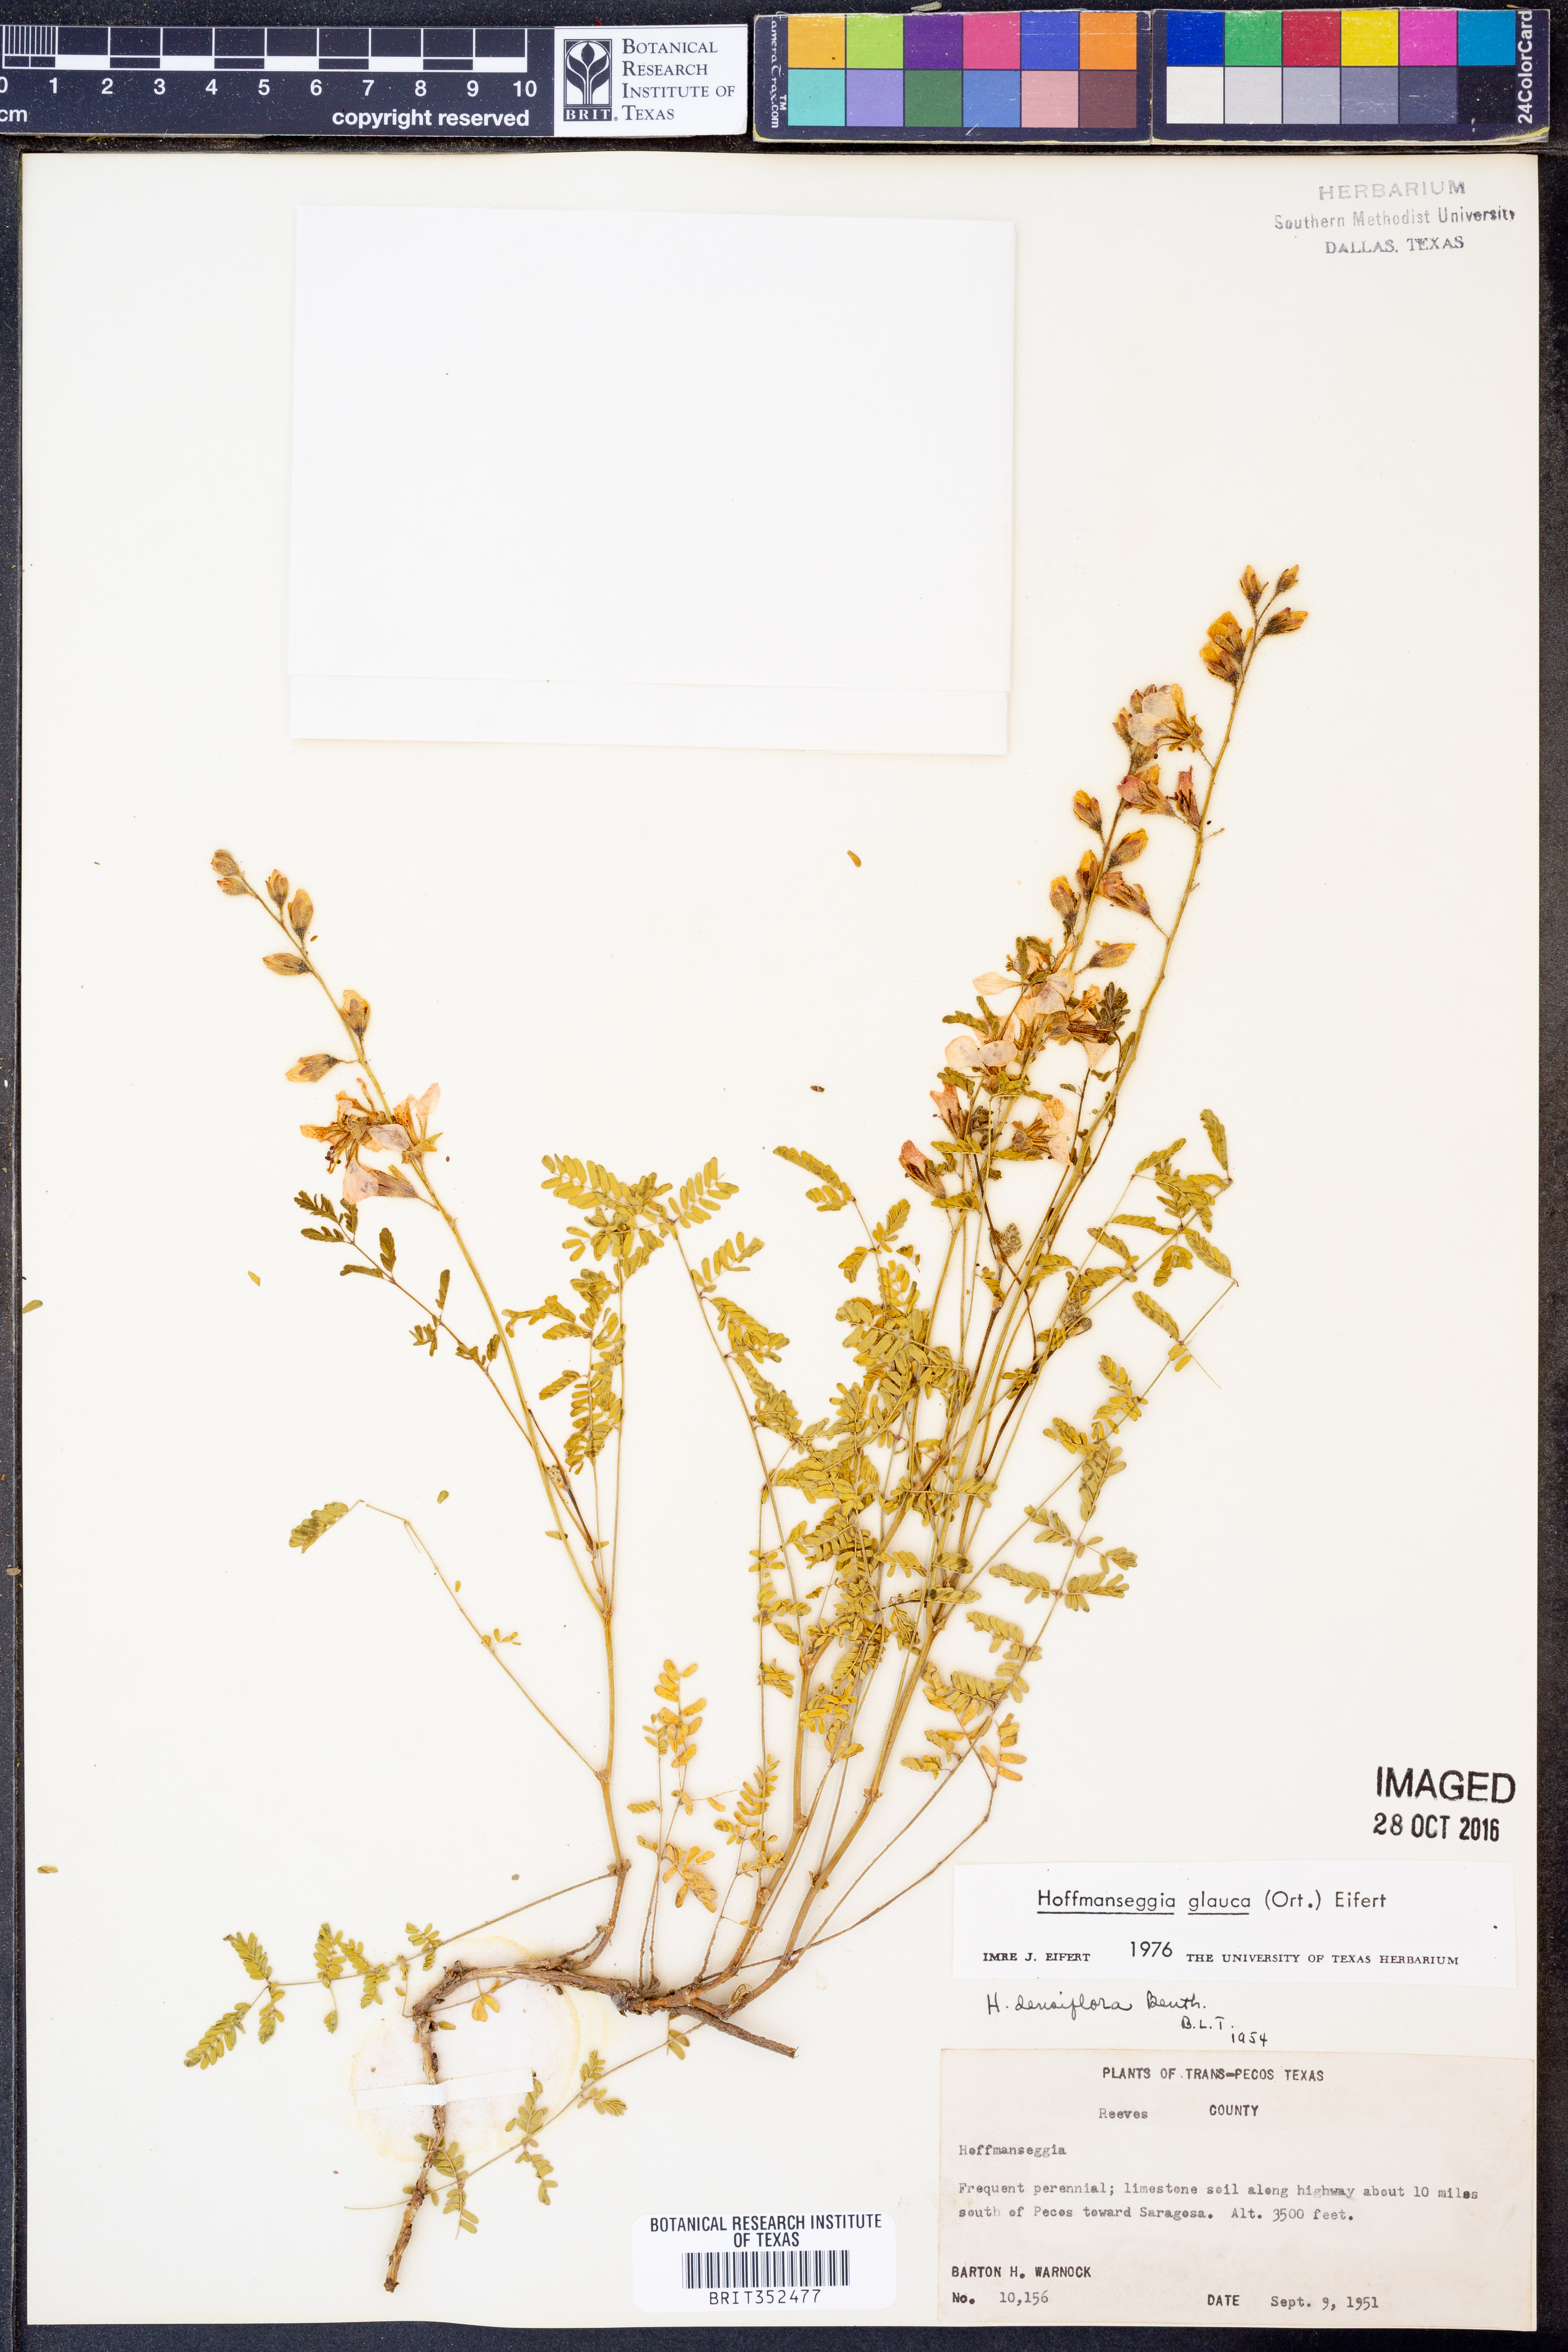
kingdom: Plantae
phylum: Tracheophyta
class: Magnoliopsida
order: Fabales
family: Fabaceae
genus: Hoffmannseggia
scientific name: Hoffmannseggia glauca
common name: Pignut
